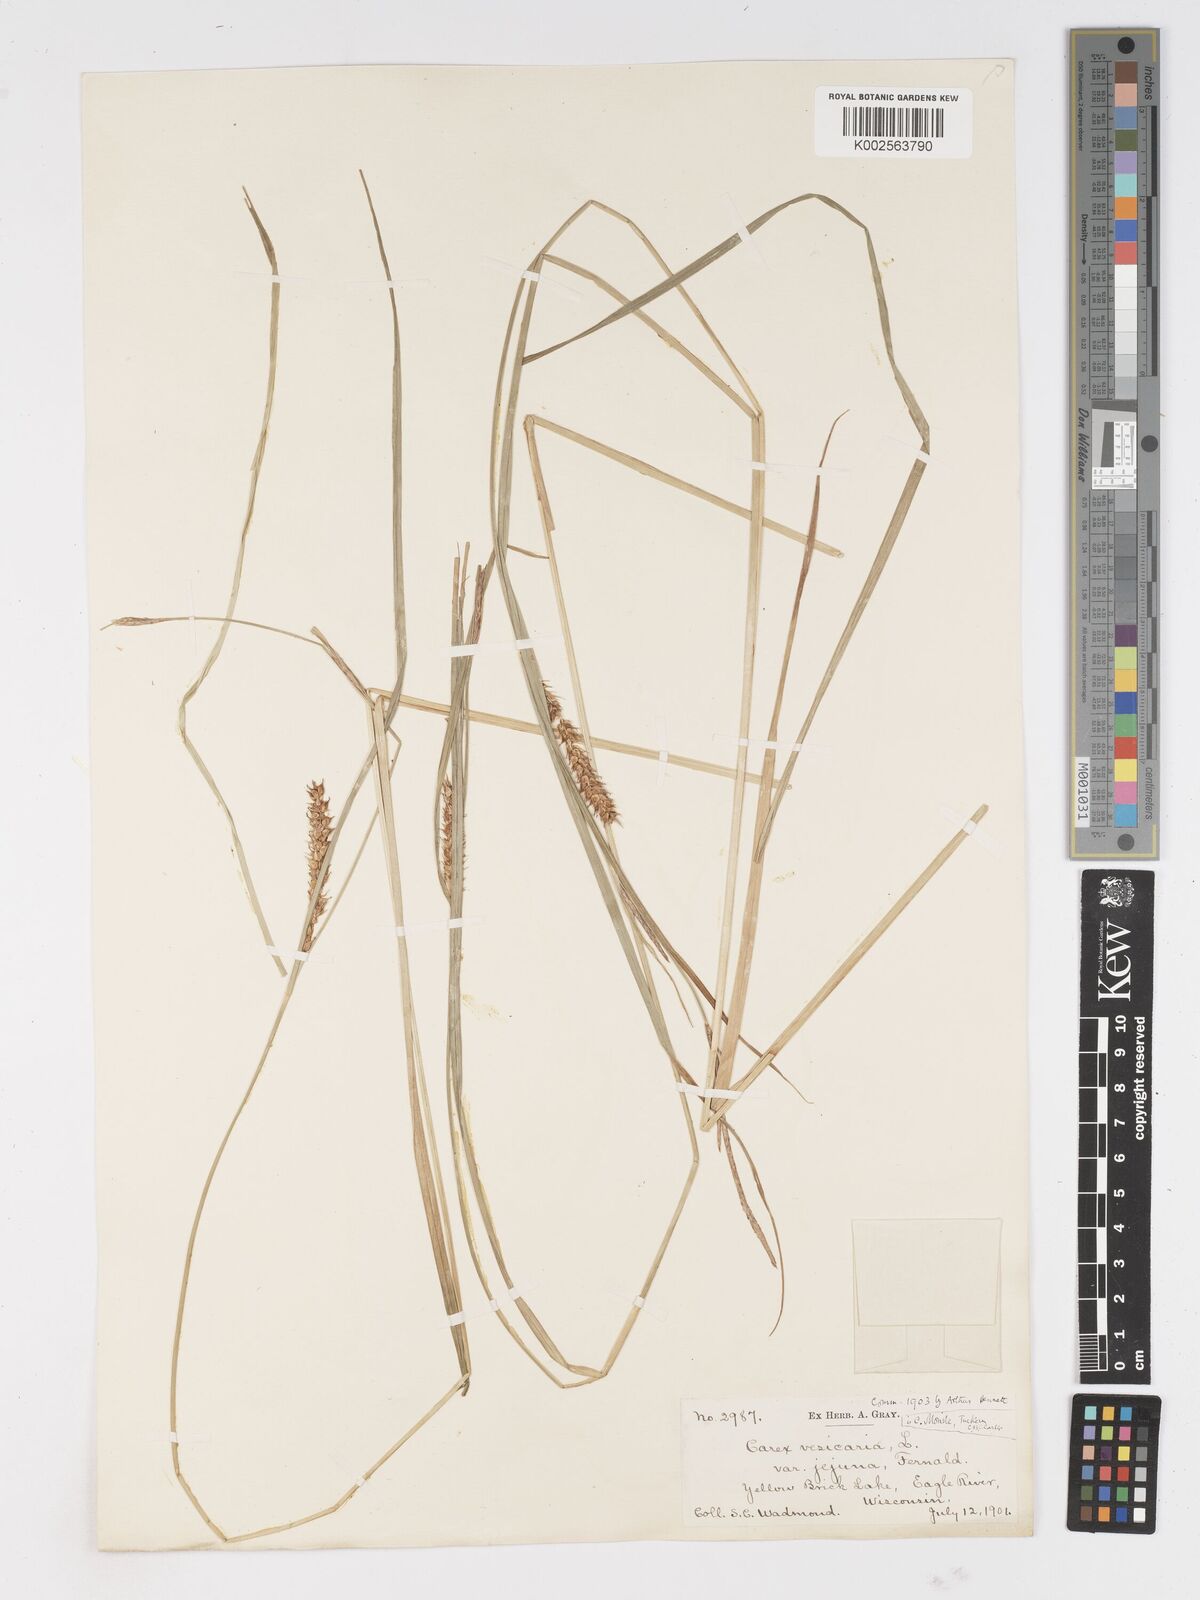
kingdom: Plantae
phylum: Tracheophyta
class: Liliopsida
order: Poales
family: Cyperaceae
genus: Carex
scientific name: Carex vesicaria
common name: Bladder-sedge
